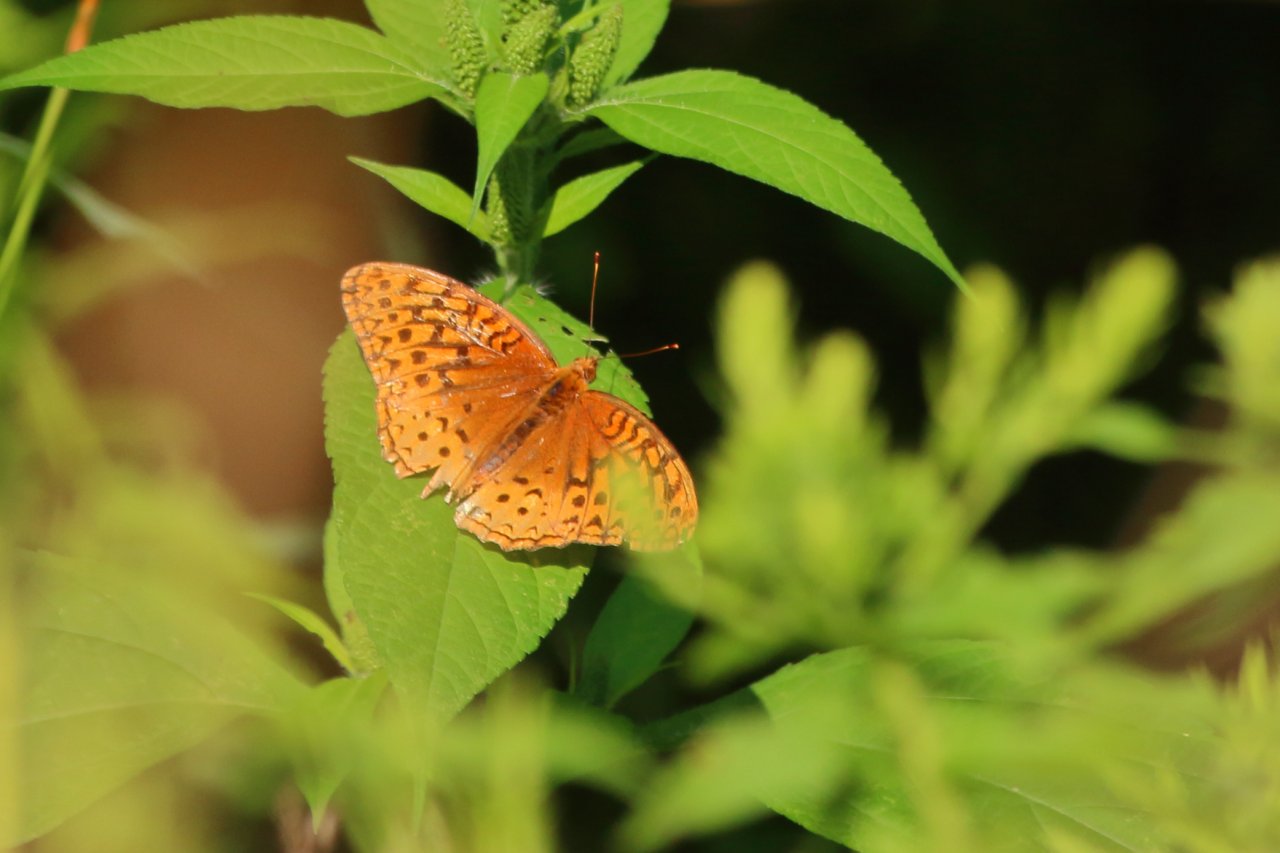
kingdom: Animalia
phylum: Arthropoda
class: Insecta
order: Lepidoptera
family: Nymphalidae
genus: Speyeria
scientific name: Speyeria cybele
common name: Great Spangled Fritillary
